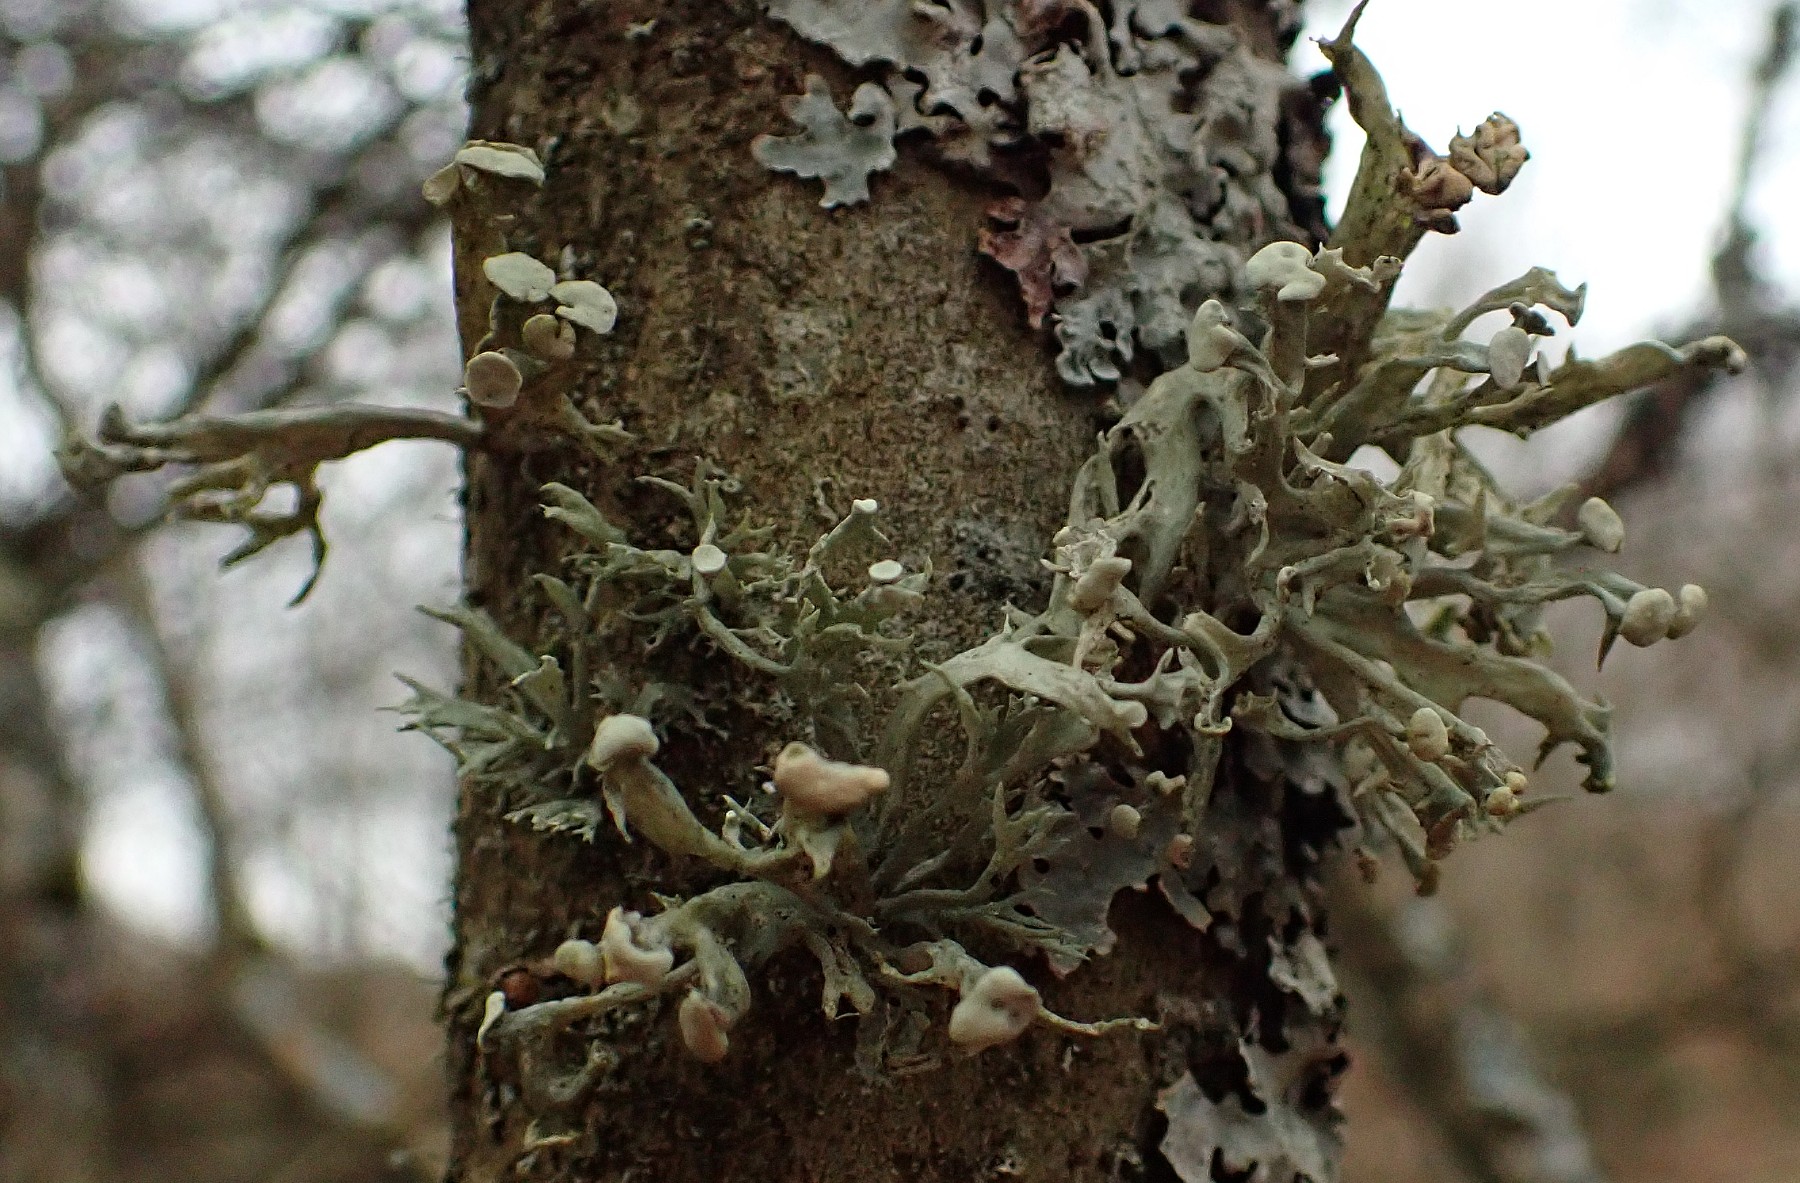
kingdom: Fungi
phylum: Ascomycota
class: Lecanoromycetes
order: Lecanorales
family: Ramalinaceae
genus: Ramalina
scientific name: Ramalina fastigiata
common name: tue-grenlav
